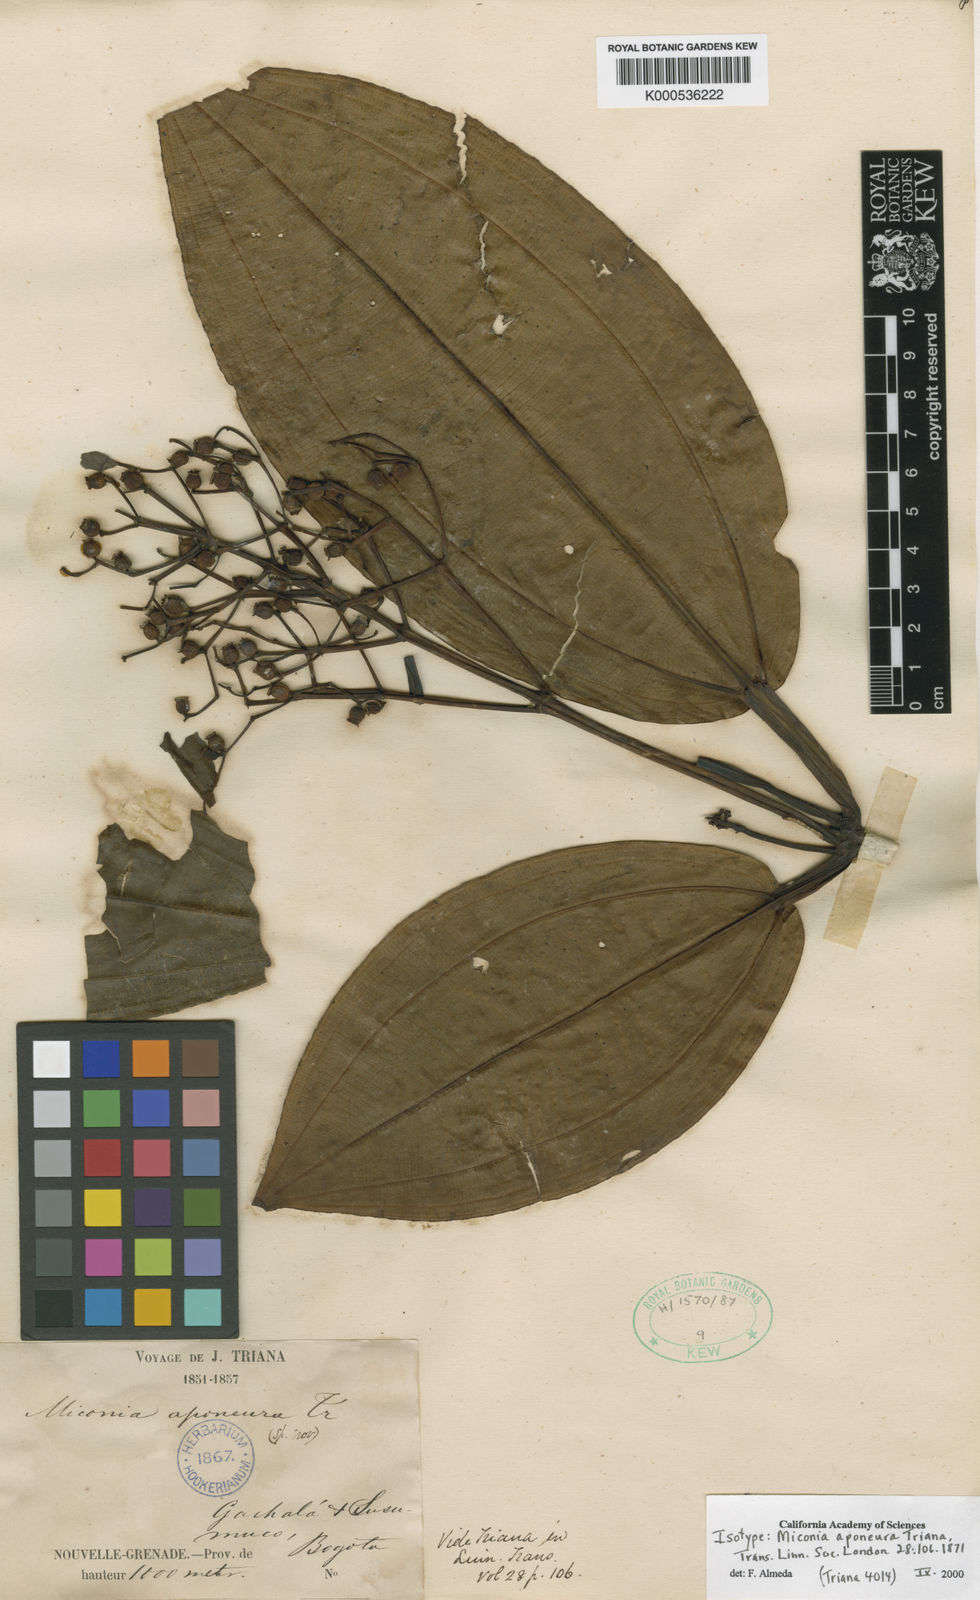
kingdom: Plantae
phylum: Tracheophyta
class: Magnoliopsida
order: Myrtales
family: Melastomataceae
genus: Miconia
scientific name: Miconia aponeura
